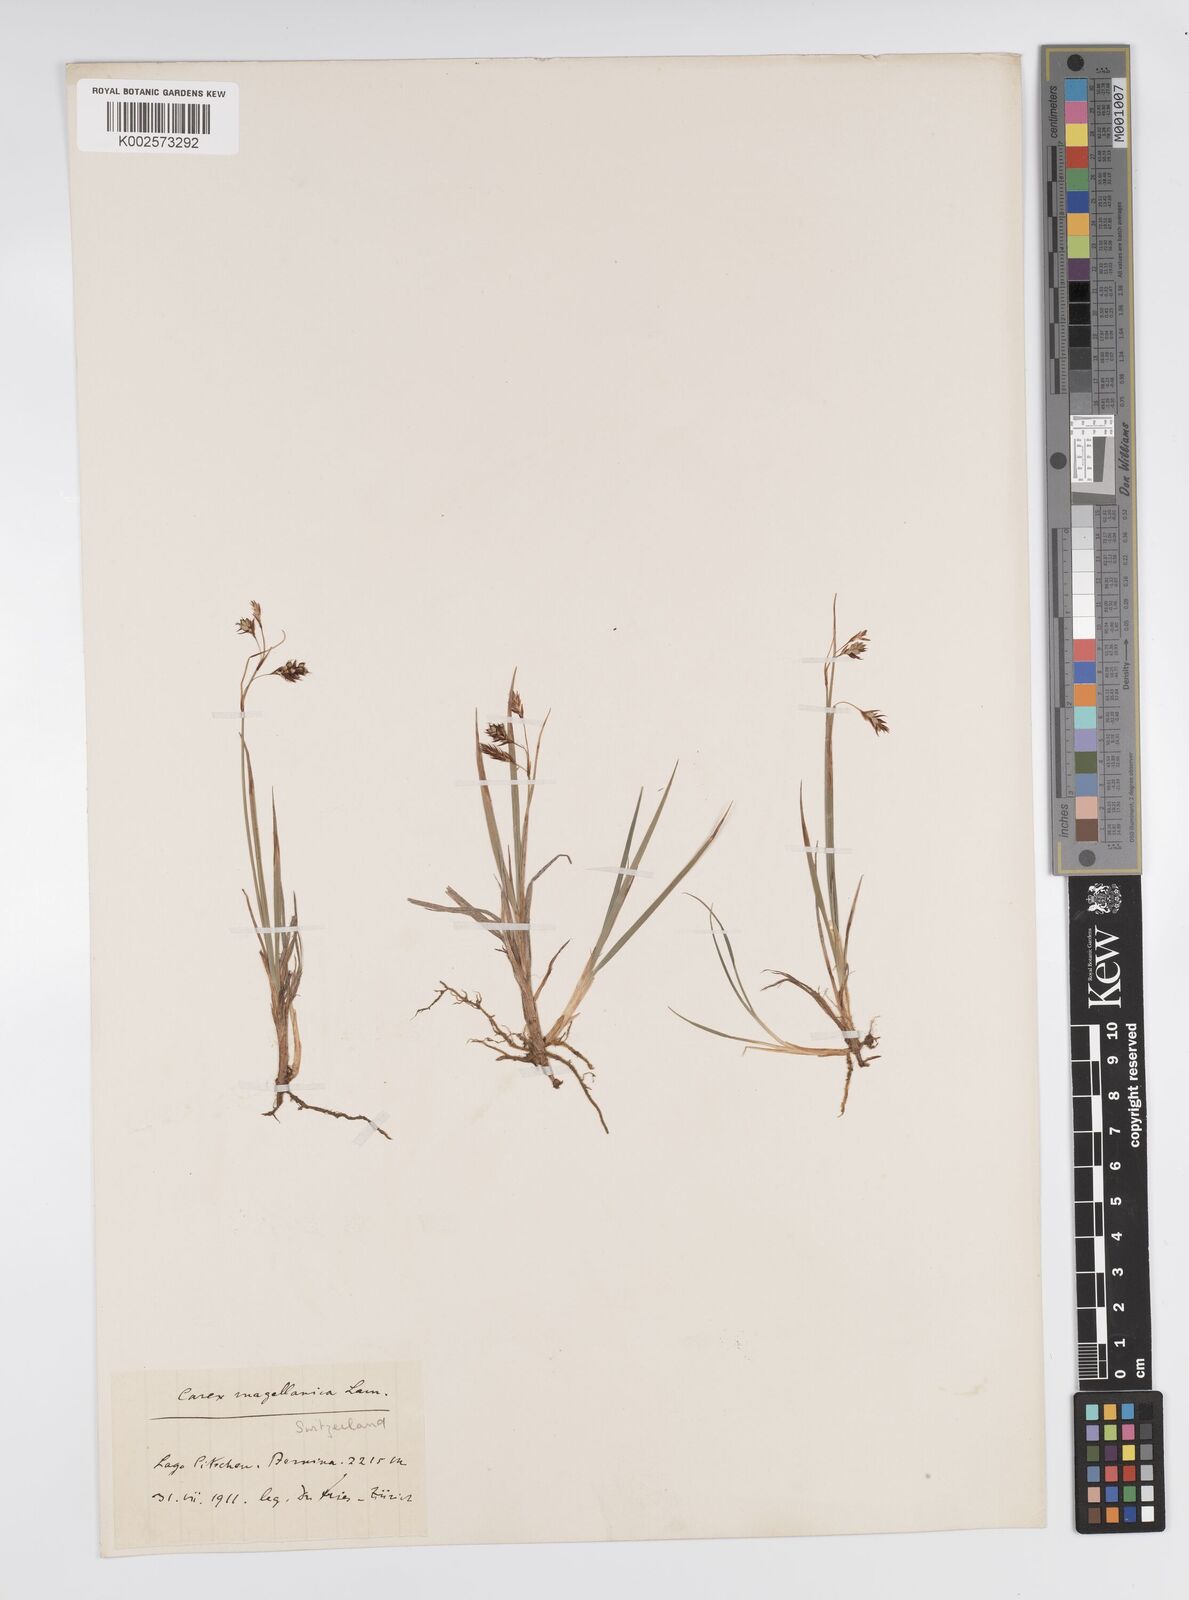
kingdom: Plantae
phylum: Tracheophyta
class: Liliopsida
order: Poales
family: Cyperaceae
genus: Carex
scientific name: Carex magellanica
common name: Bog sedge
